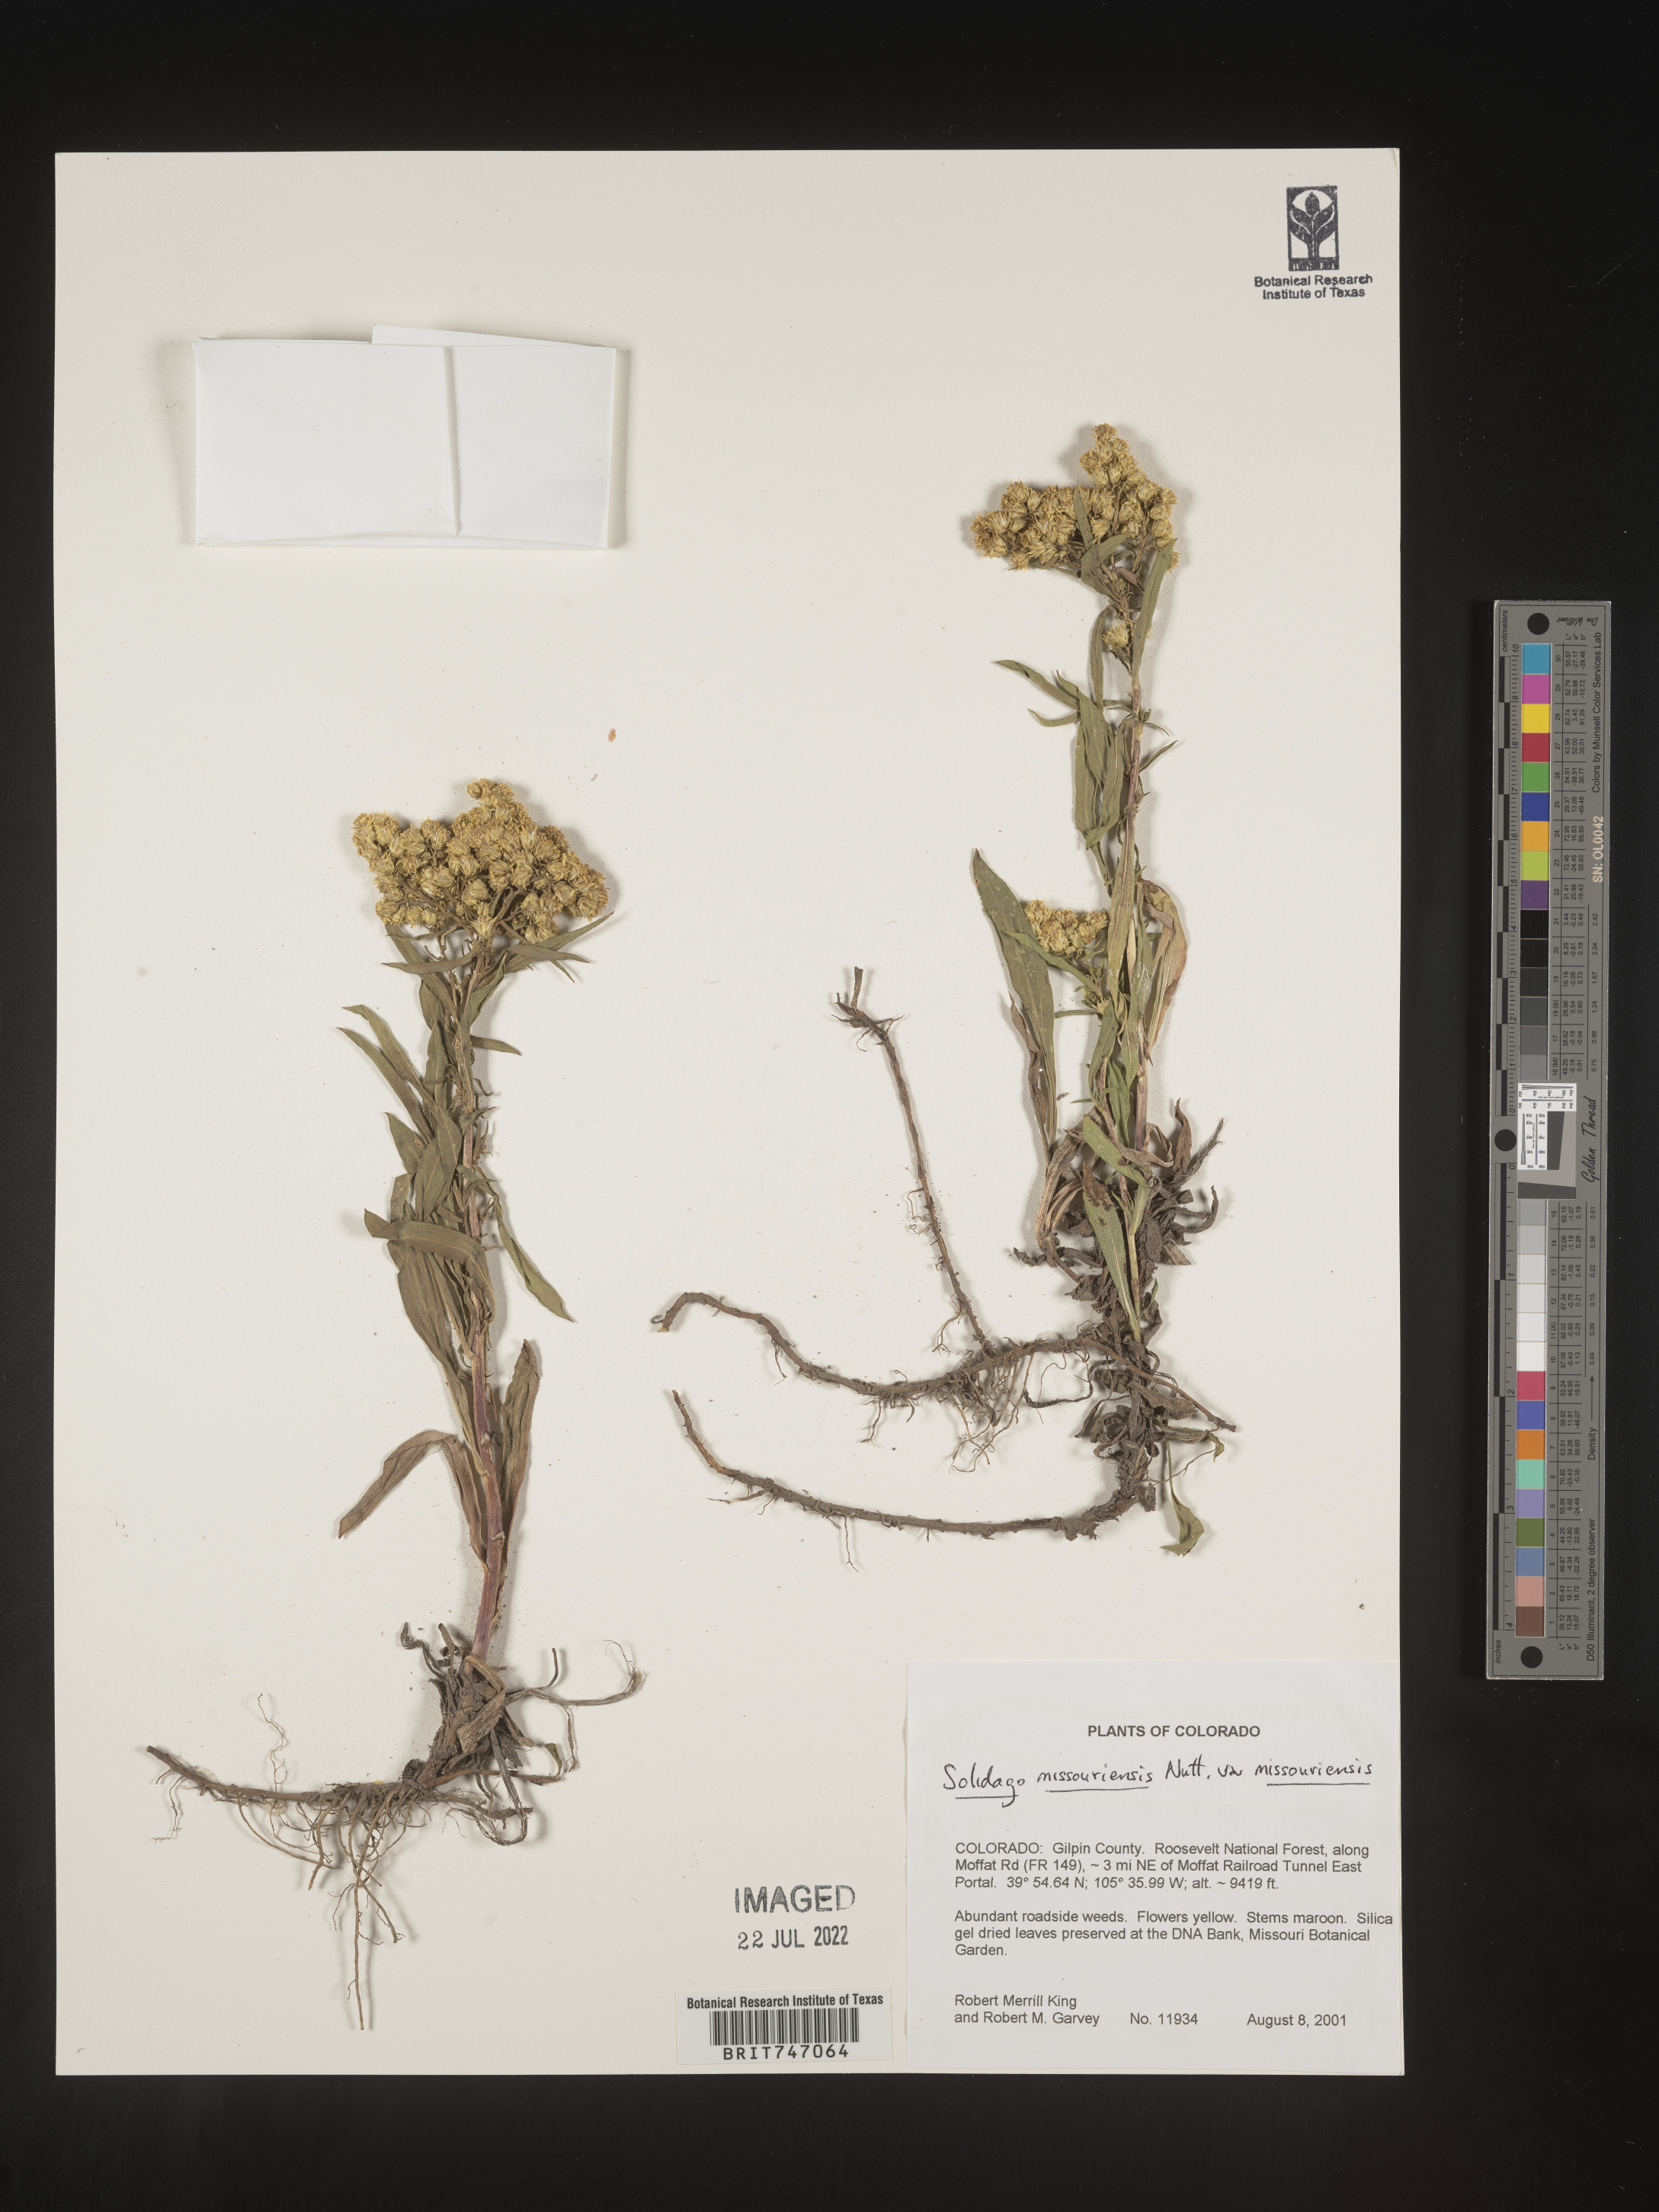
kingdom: Plantae
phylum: Tracheophyta
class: Magnoliopsida
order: Asterales
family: Asteraceae
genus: Solidago
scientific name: Solidago missouriensis
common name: Prairie goldenrod
